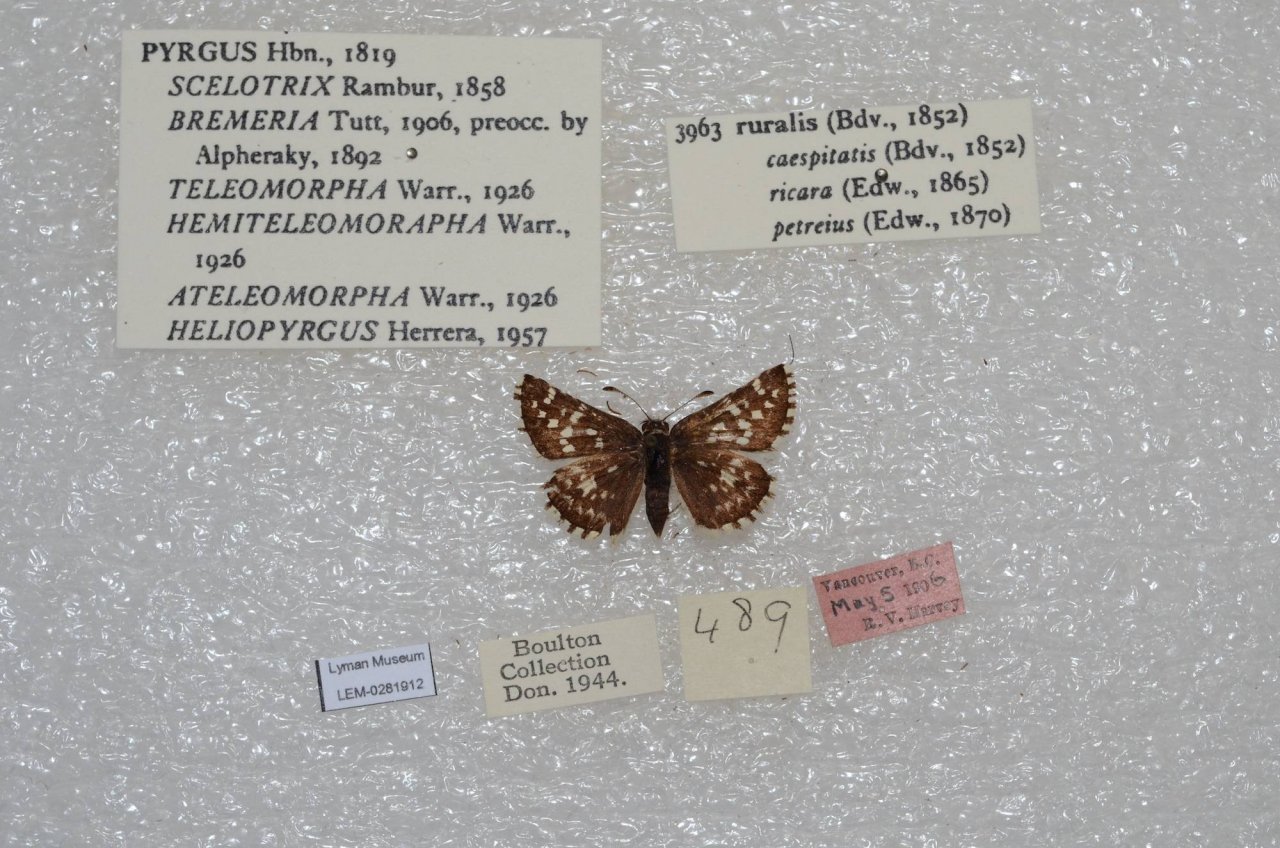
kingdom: Animalia
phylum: Arthropoda
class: Insecta
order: Lepidoptera
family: Hesperiidae
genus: Pyrgus
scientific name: Pyrgus ruralis
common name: Two-banded Checkered-Skipper
